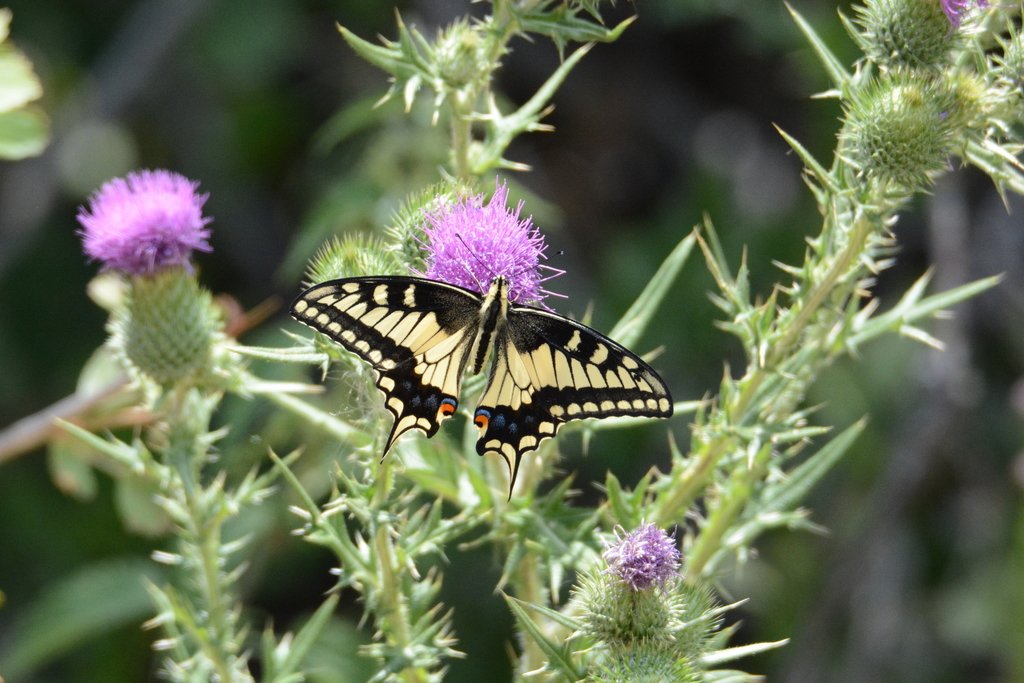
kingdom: Animalia
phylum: Arthropoda
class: Insecta
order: Lepidoptera
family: Papilionidae
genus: Papilio
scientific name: Papilio machaon
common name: Old World Swallowtail
